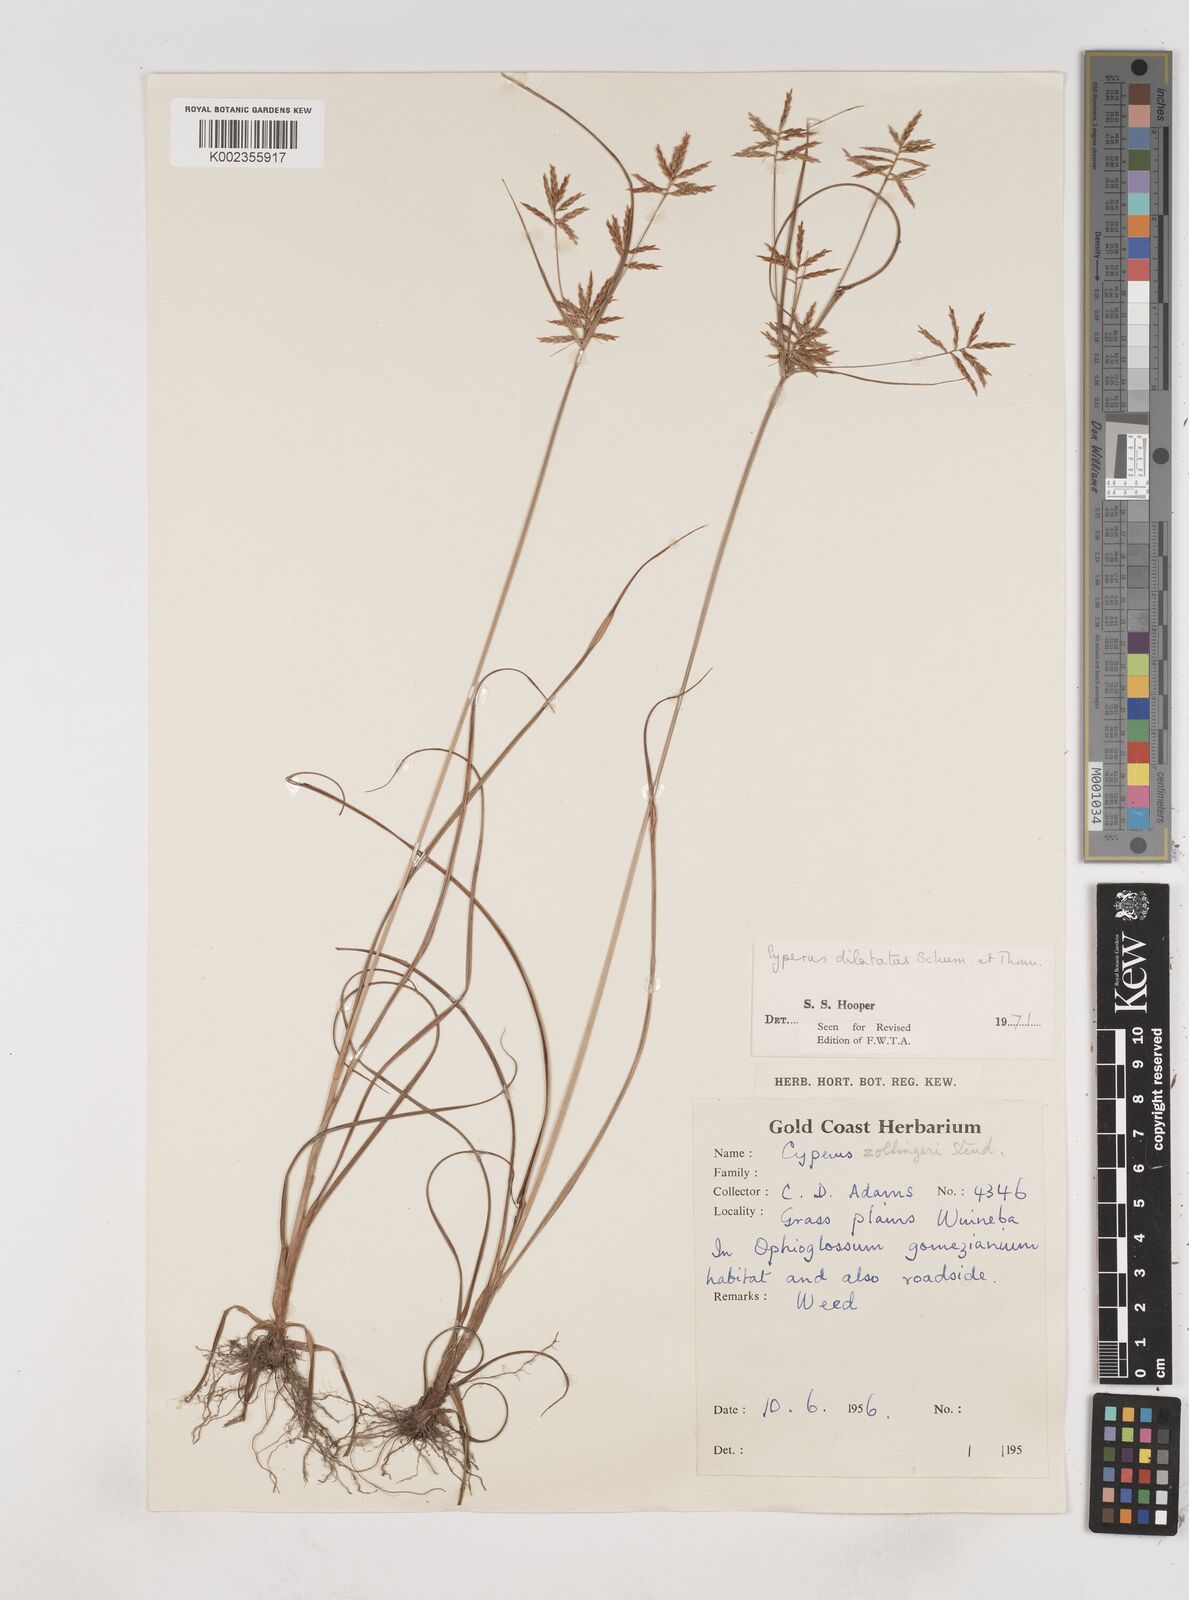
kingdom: Plantae
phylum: Tracheophyta
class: Liliopsida
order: Poales
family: Cyperaceae
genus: Cyperus
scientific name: Cyperus dilatatus
